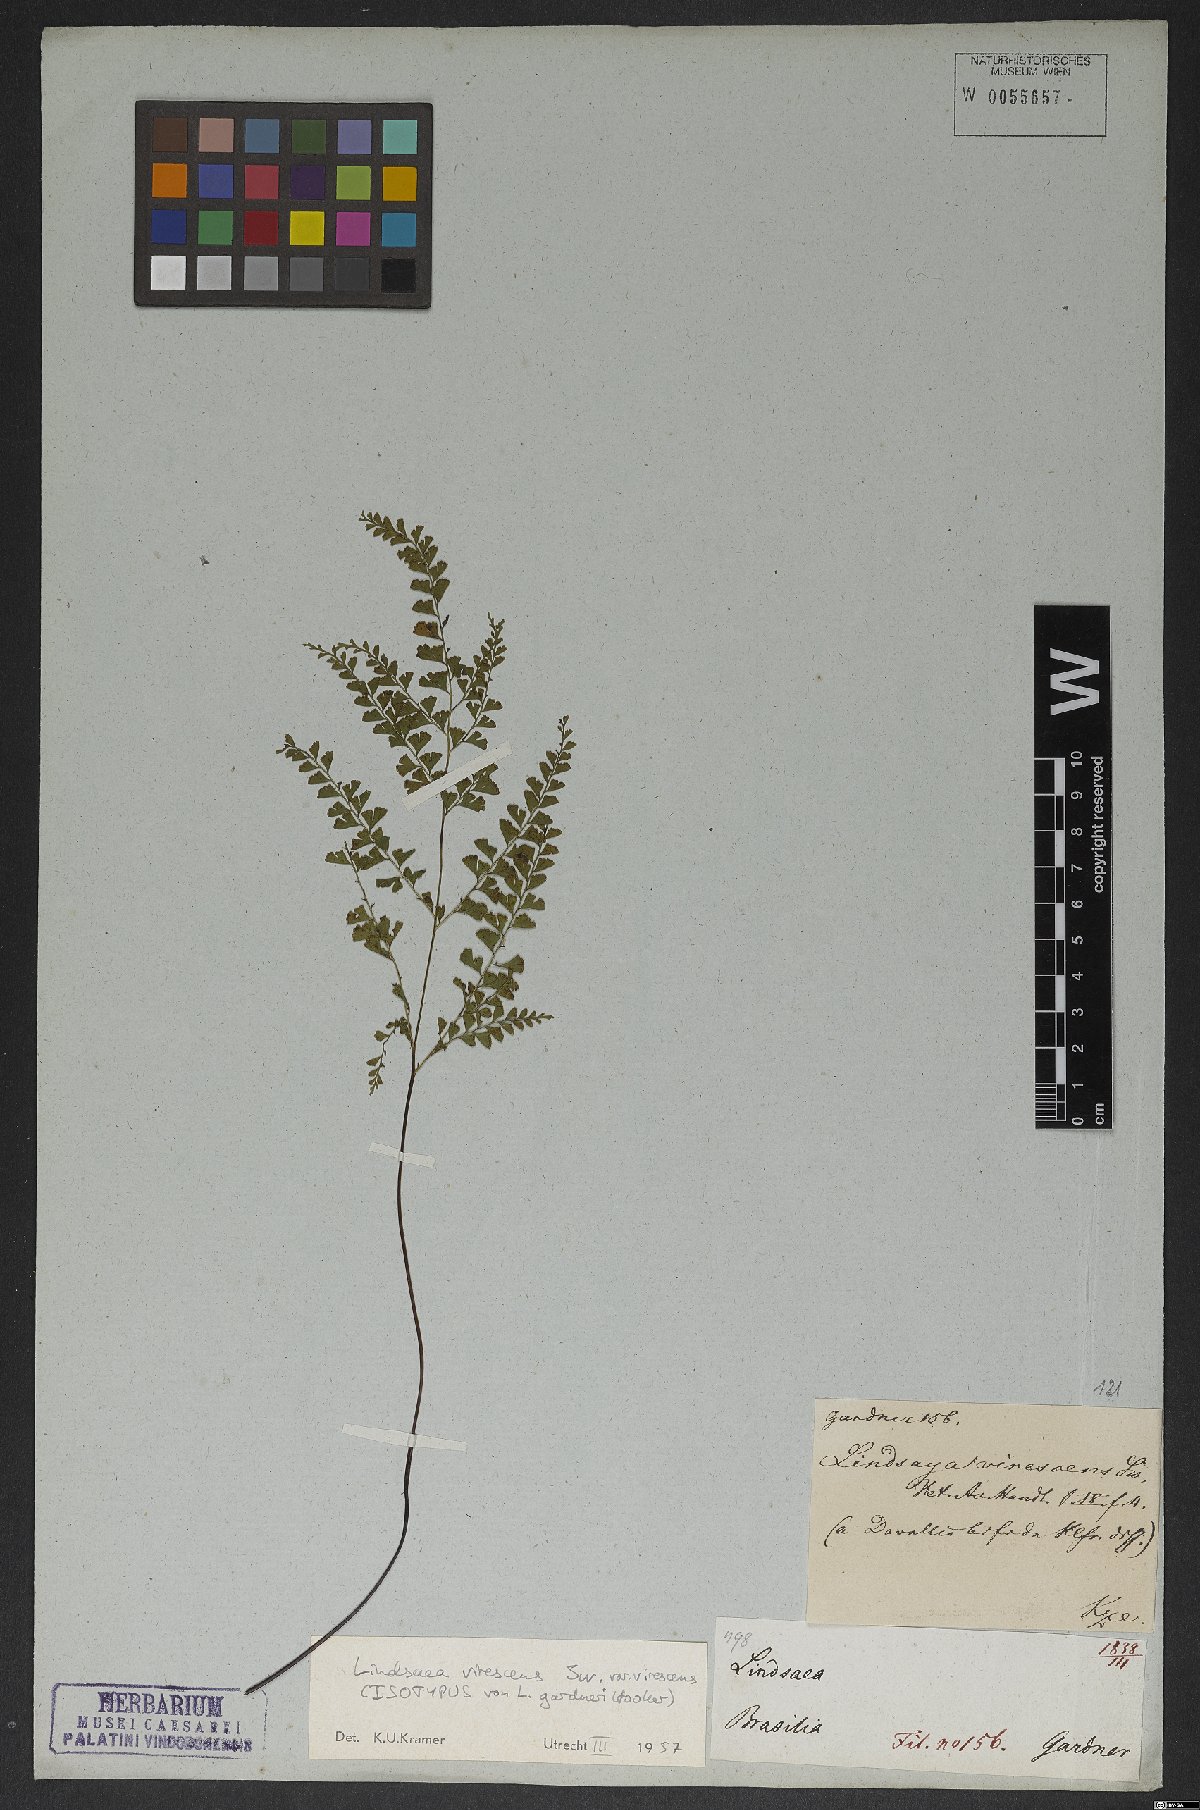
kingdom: Plantae
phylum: Tracheophyta
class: Polypodiopsida
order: Polypodiales
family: Lindsaeaceae
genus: Lindsaea
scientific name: Lindsaea virescens
